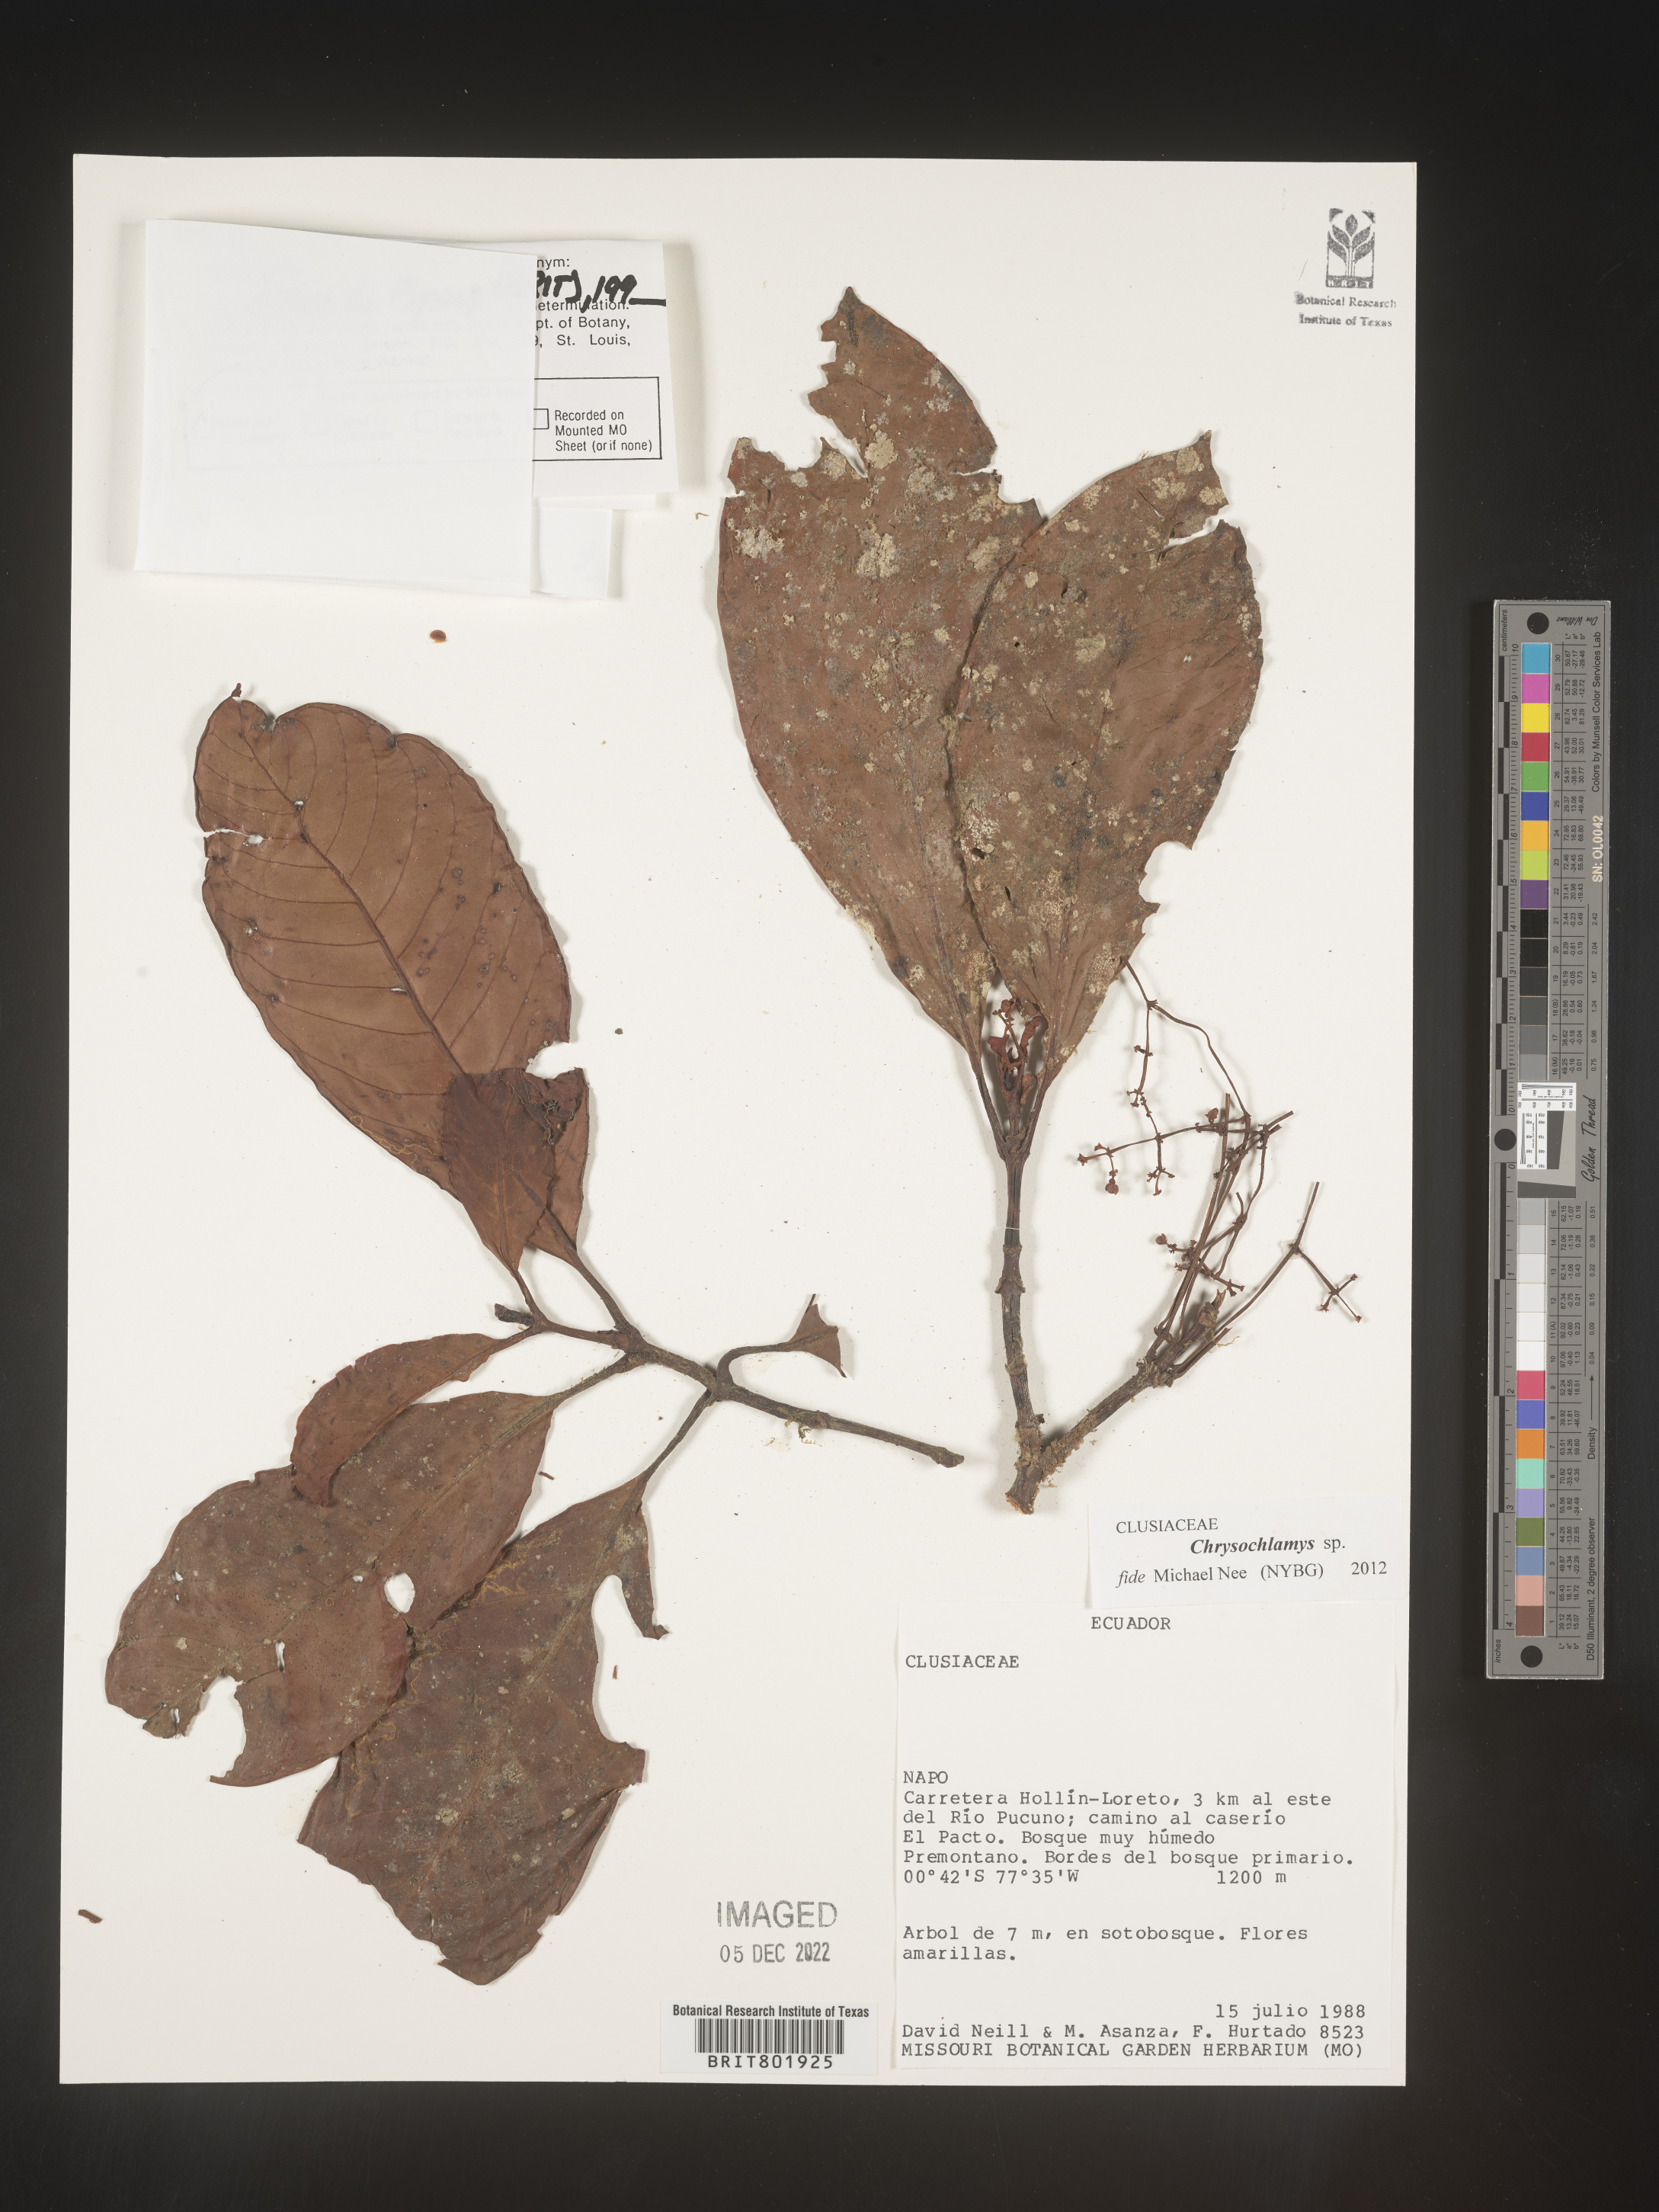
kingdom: Plantae
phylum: Tracheophyta
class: Magnoliopsida
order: Malpighiales
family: Clusiaceae
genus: Chrysochlamys
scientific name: Chrysochlamys
